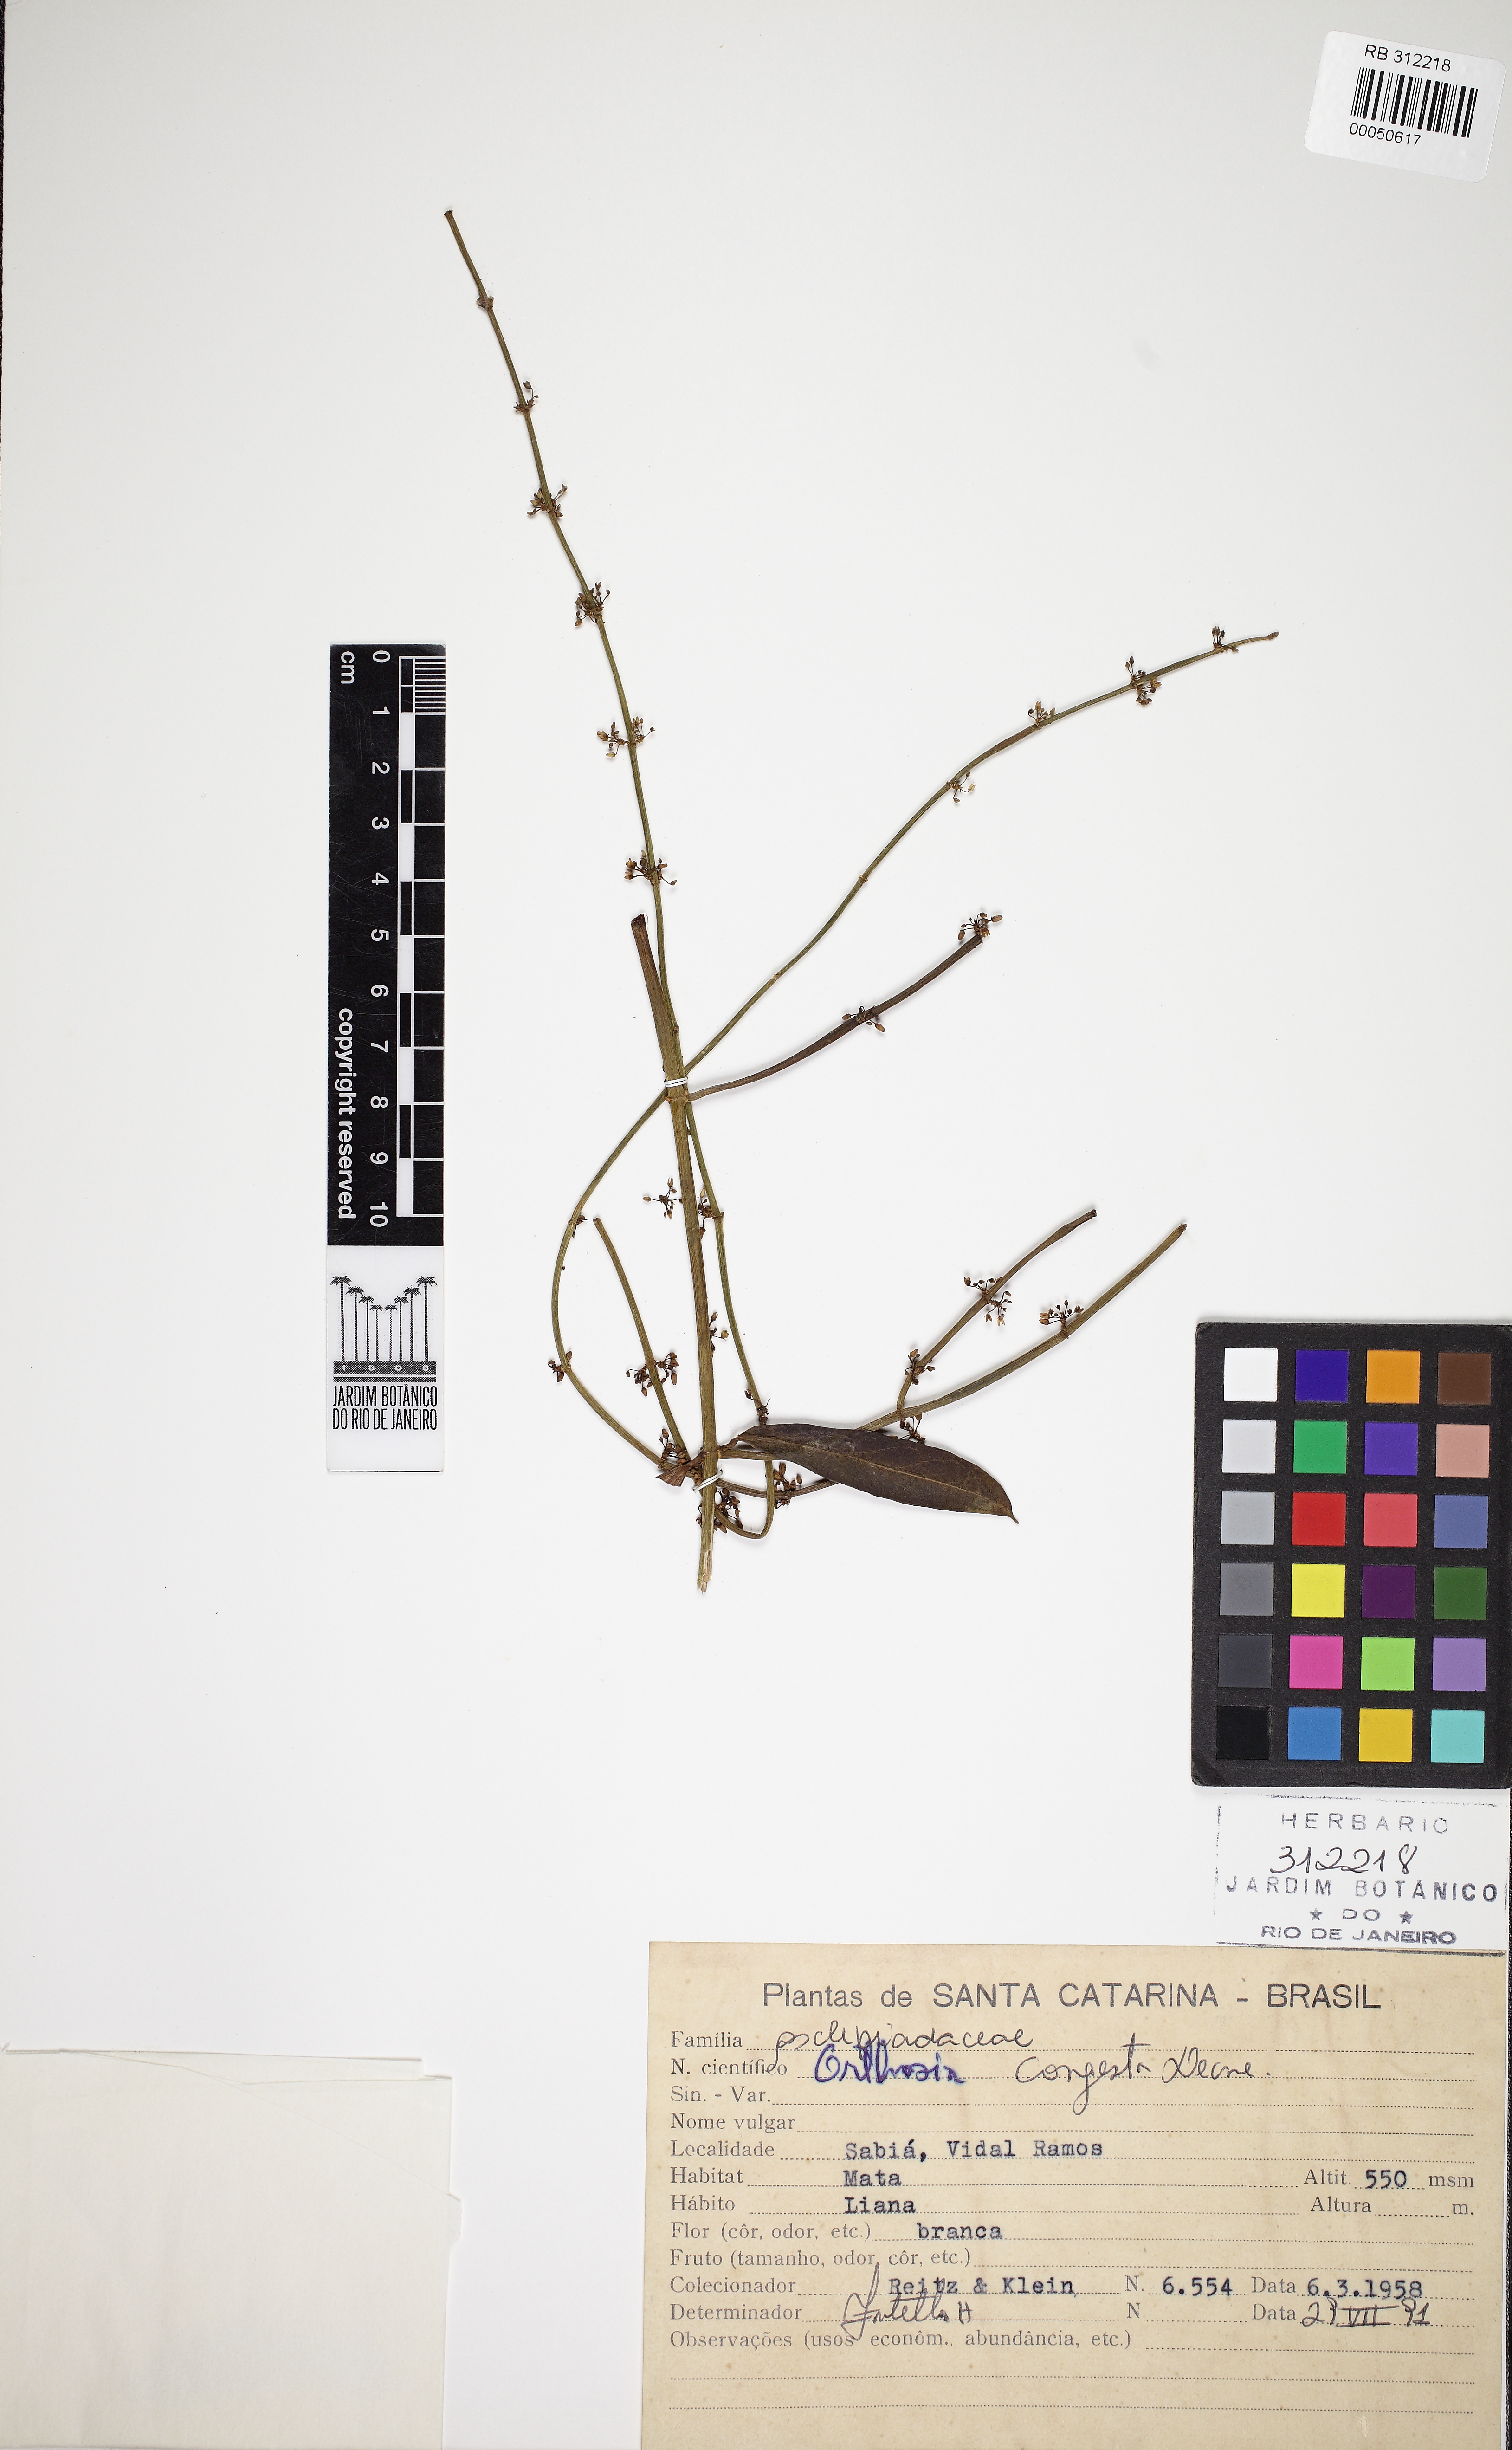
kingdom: Plantae
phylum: Tracheophyta
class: Magnoliopsida
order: Gentianales
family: Apocynaceae
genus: Orthosia
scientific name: Orthosia congesta
